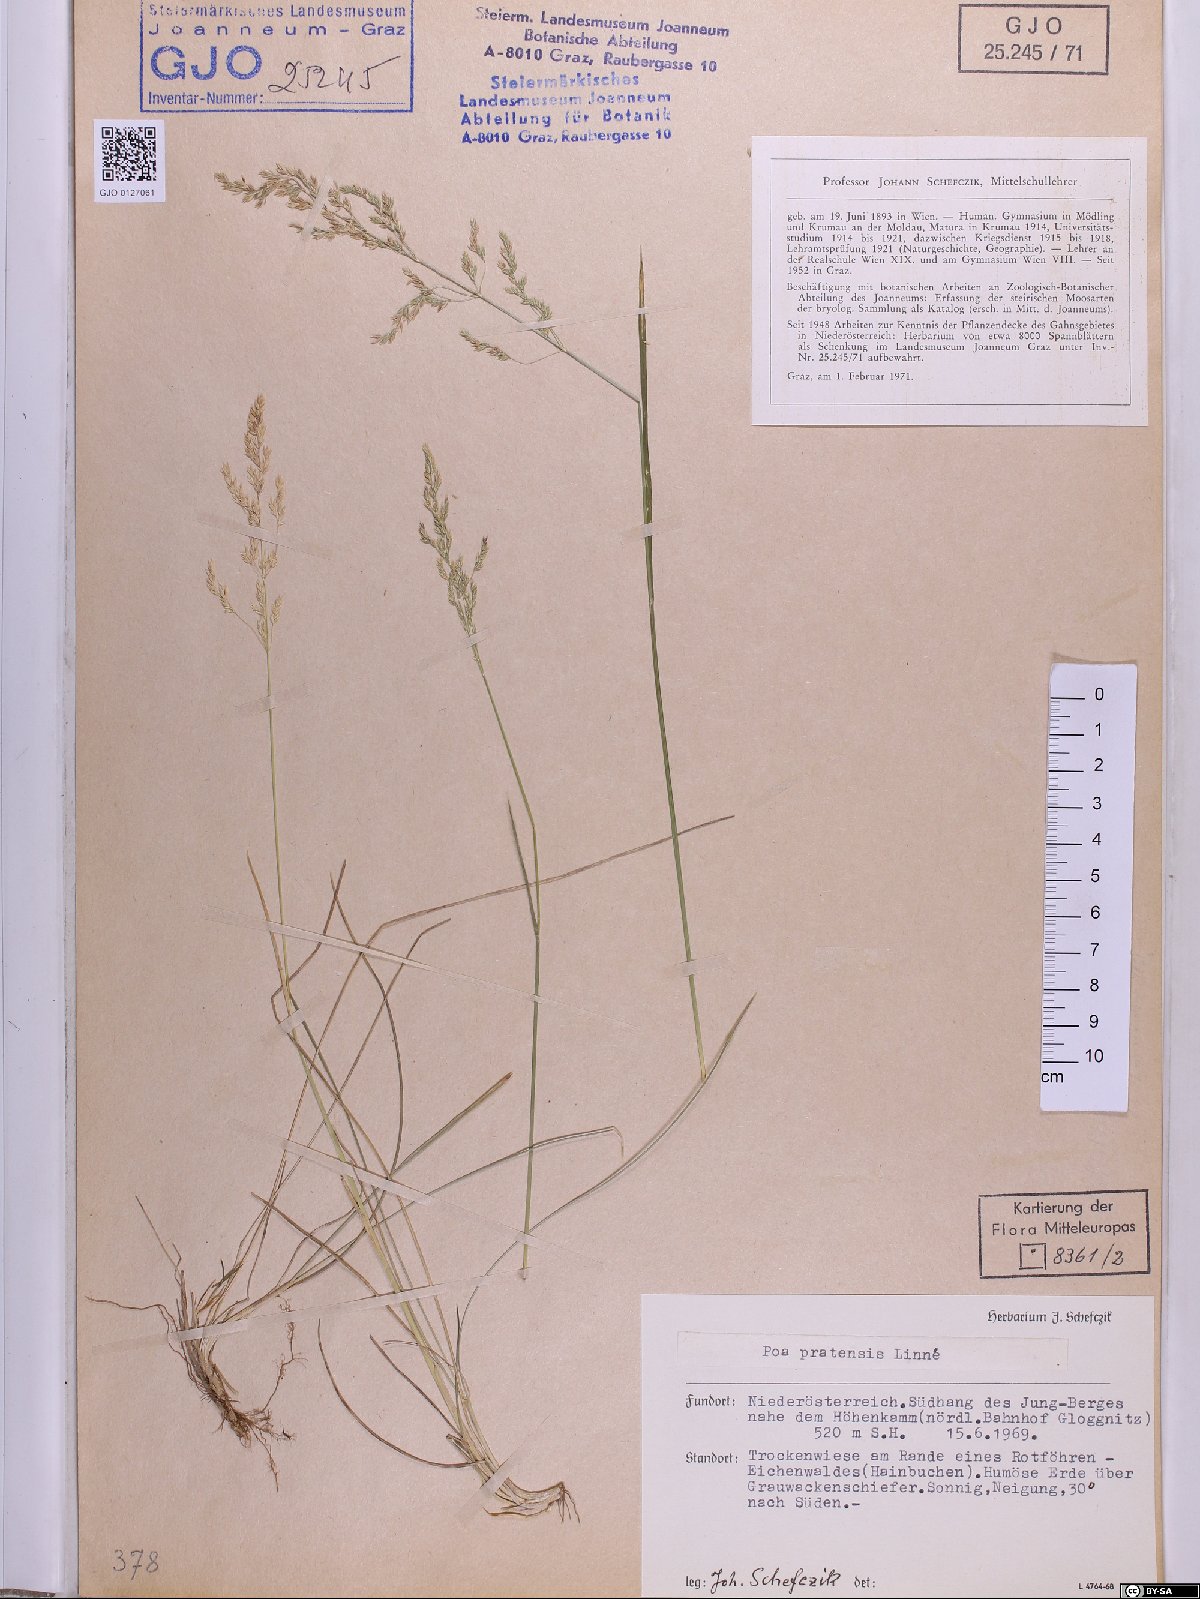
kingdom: Plantae
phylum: Tracheophyta
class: Liliopsida
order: Poales
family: Poaceae
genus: Poa
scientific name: Poa pratensis
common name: Kentucky bluegrass
